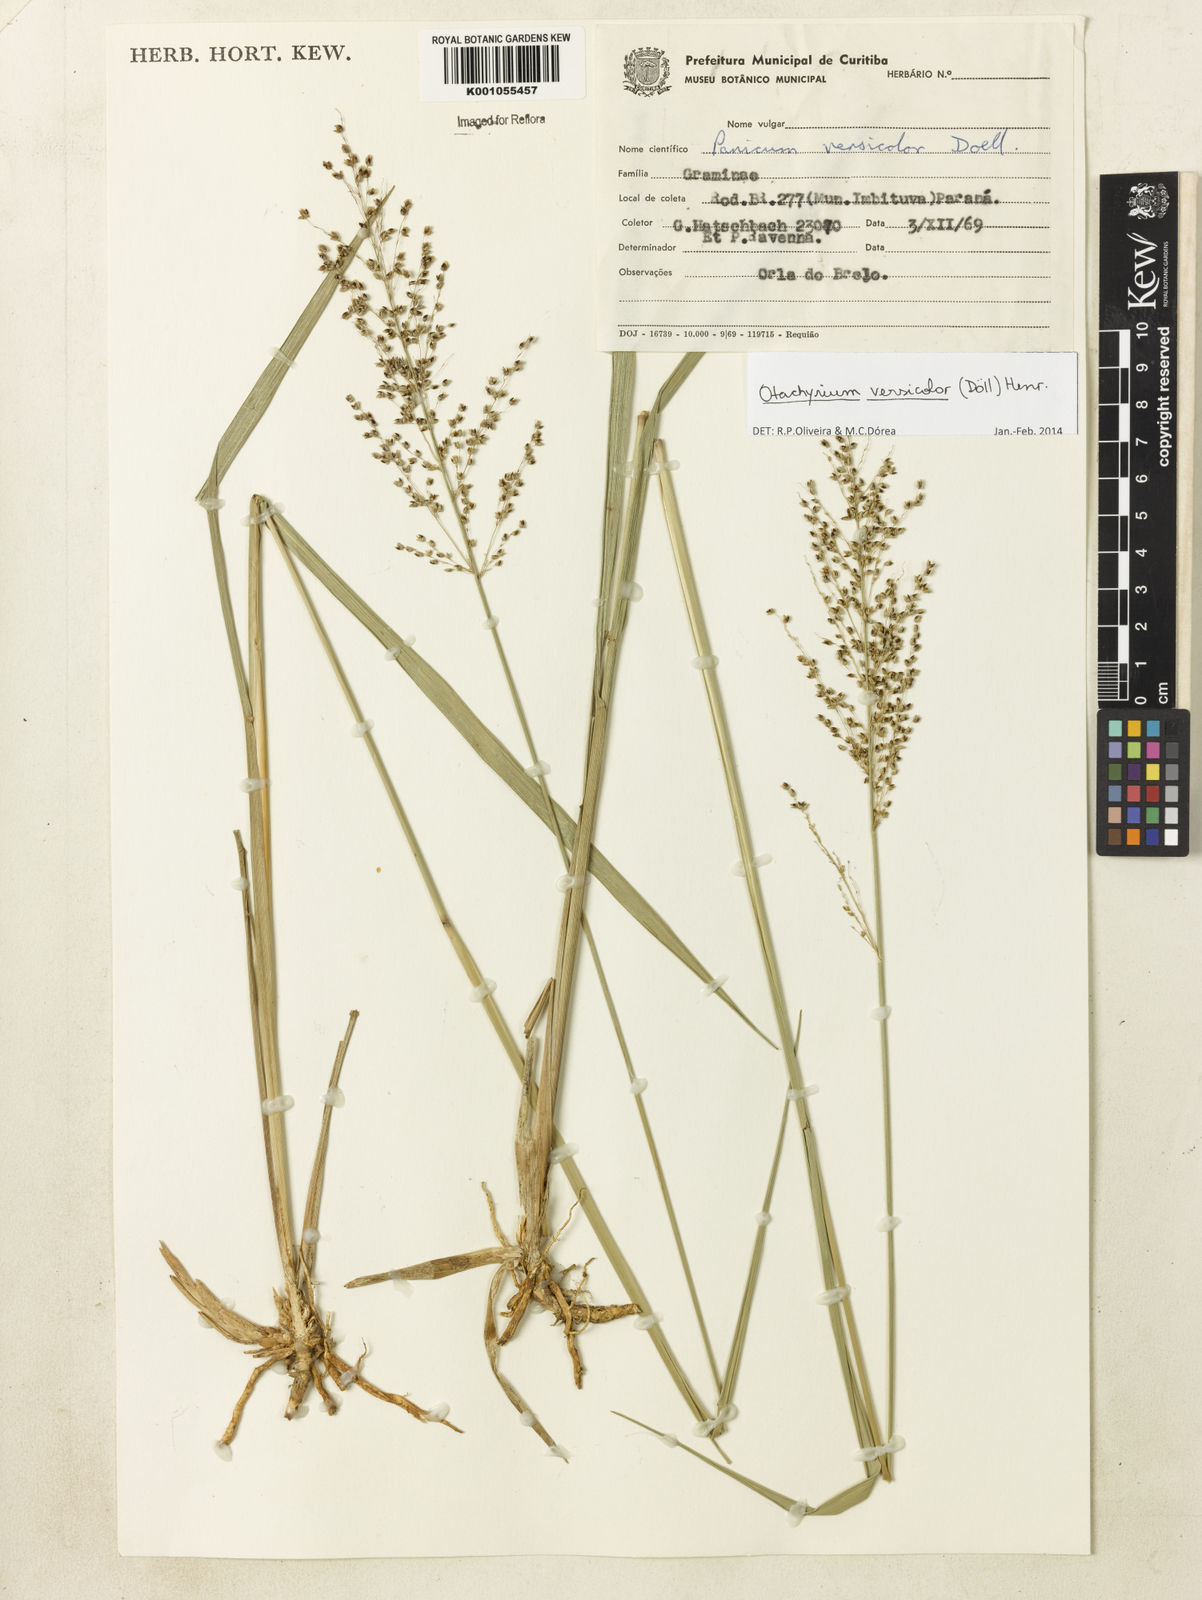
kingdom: Plantae
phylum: Tracheophyta
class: Liliopsida
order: Poales
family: Poaceae
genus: Otachyrium
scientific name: Otachyrium
